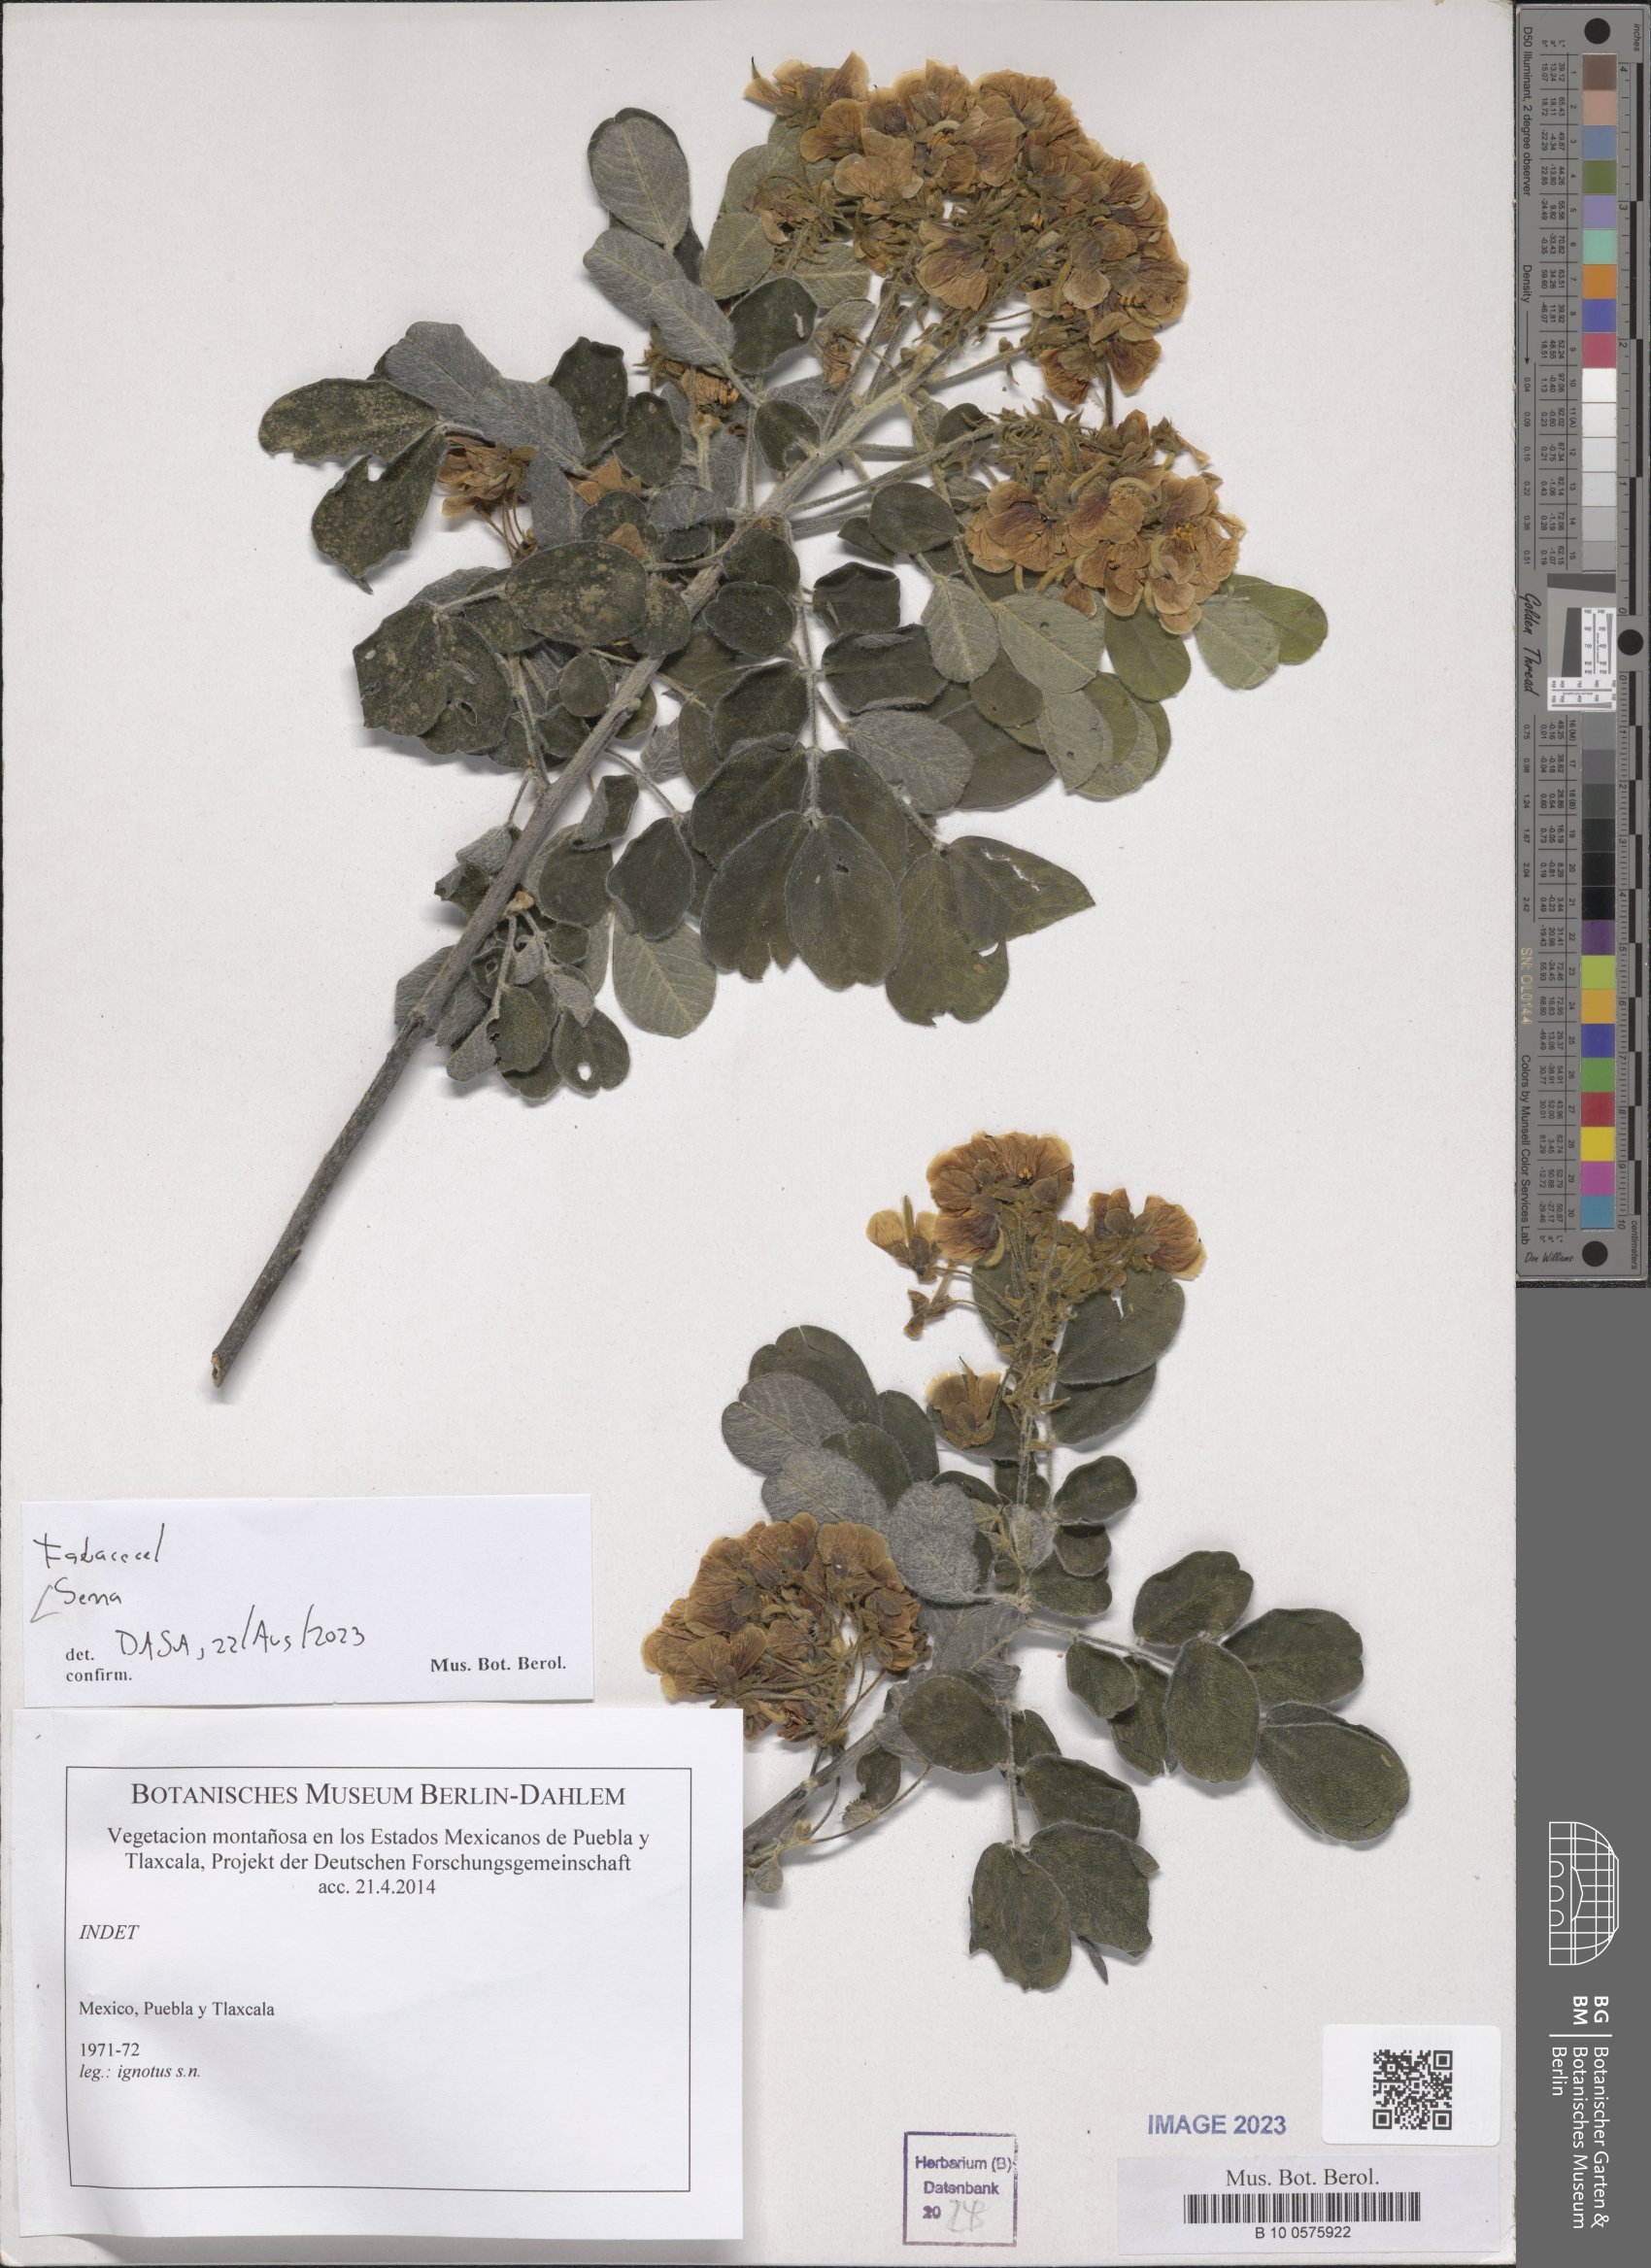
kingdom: Plantae
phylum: Tracheophyta
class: Magnoliopsida
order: Fabales
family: Fabaceae
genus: Senna
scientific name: Senna
